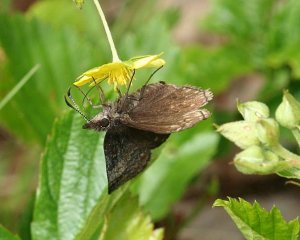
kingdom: Animalia
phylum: Arthropoda
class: Insecta
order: Lepidoptera
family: Hesperiidae
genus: Erynnis
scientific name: Erynnis icelus
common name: Dreamy Duskywing
